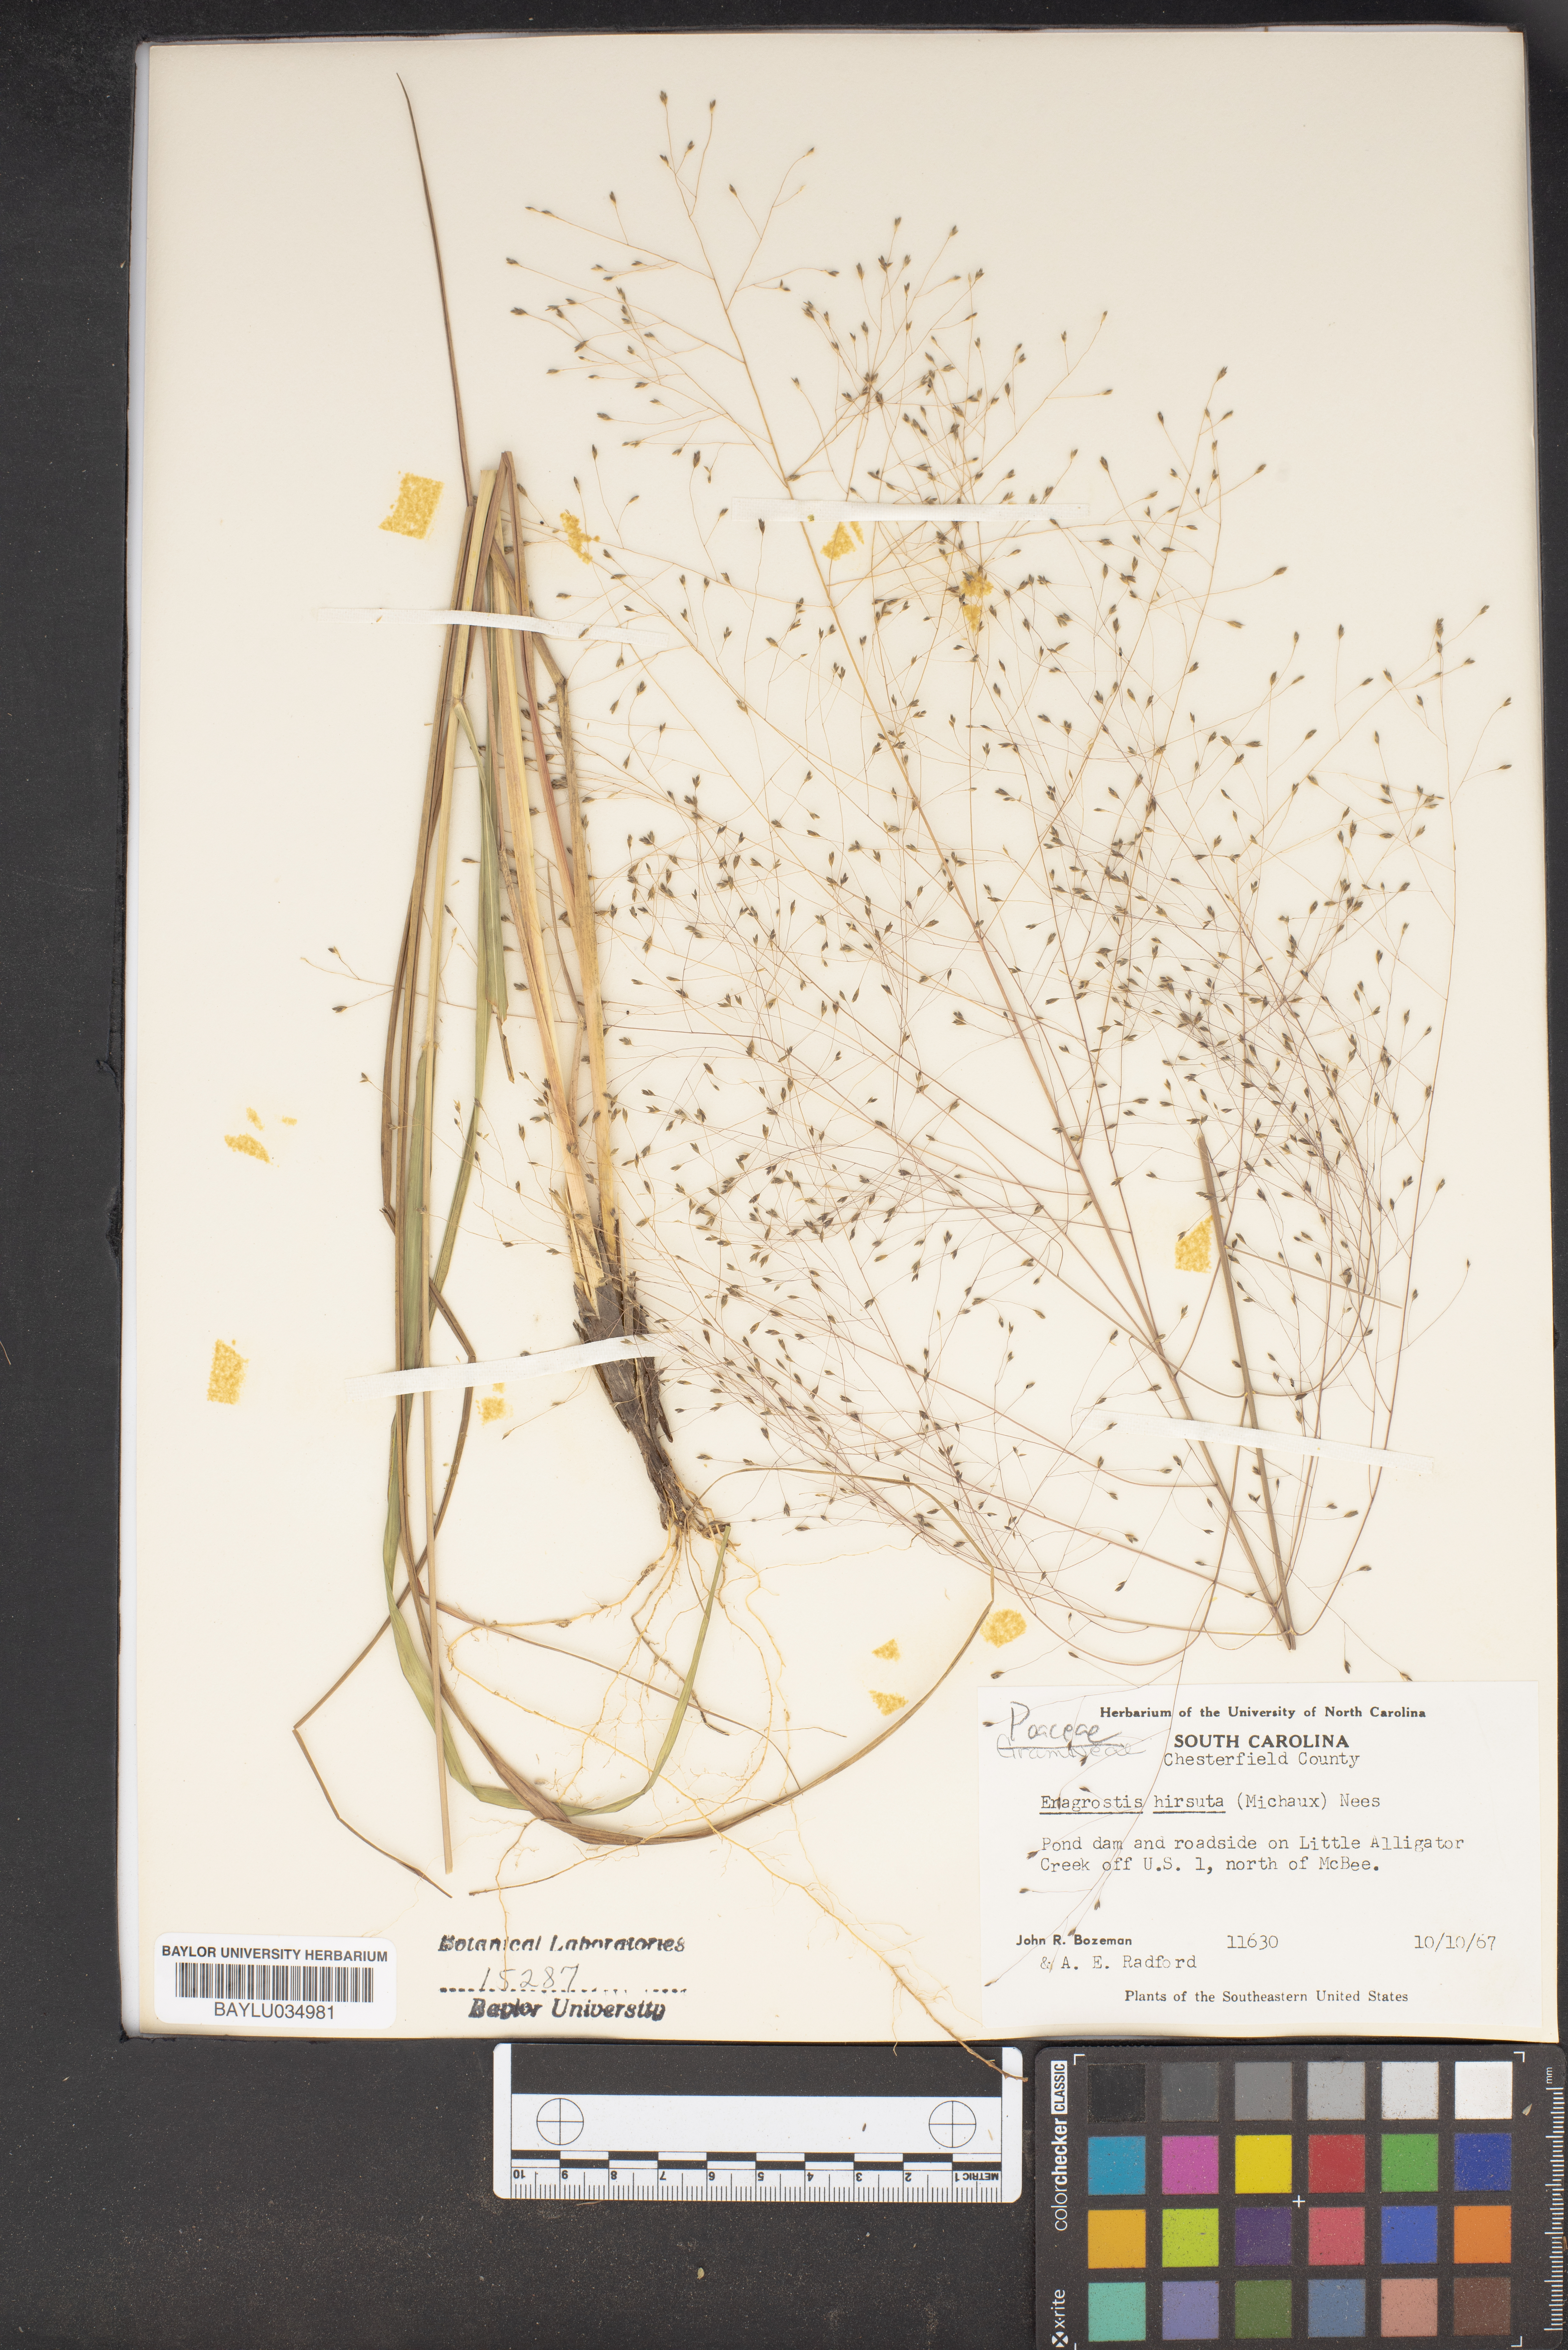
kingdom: Plantae
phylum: Tracheophyta
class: Liliopsida
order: Poales
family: Poaceae
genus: Eragrostis
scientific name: Eragrostis hirsuta
